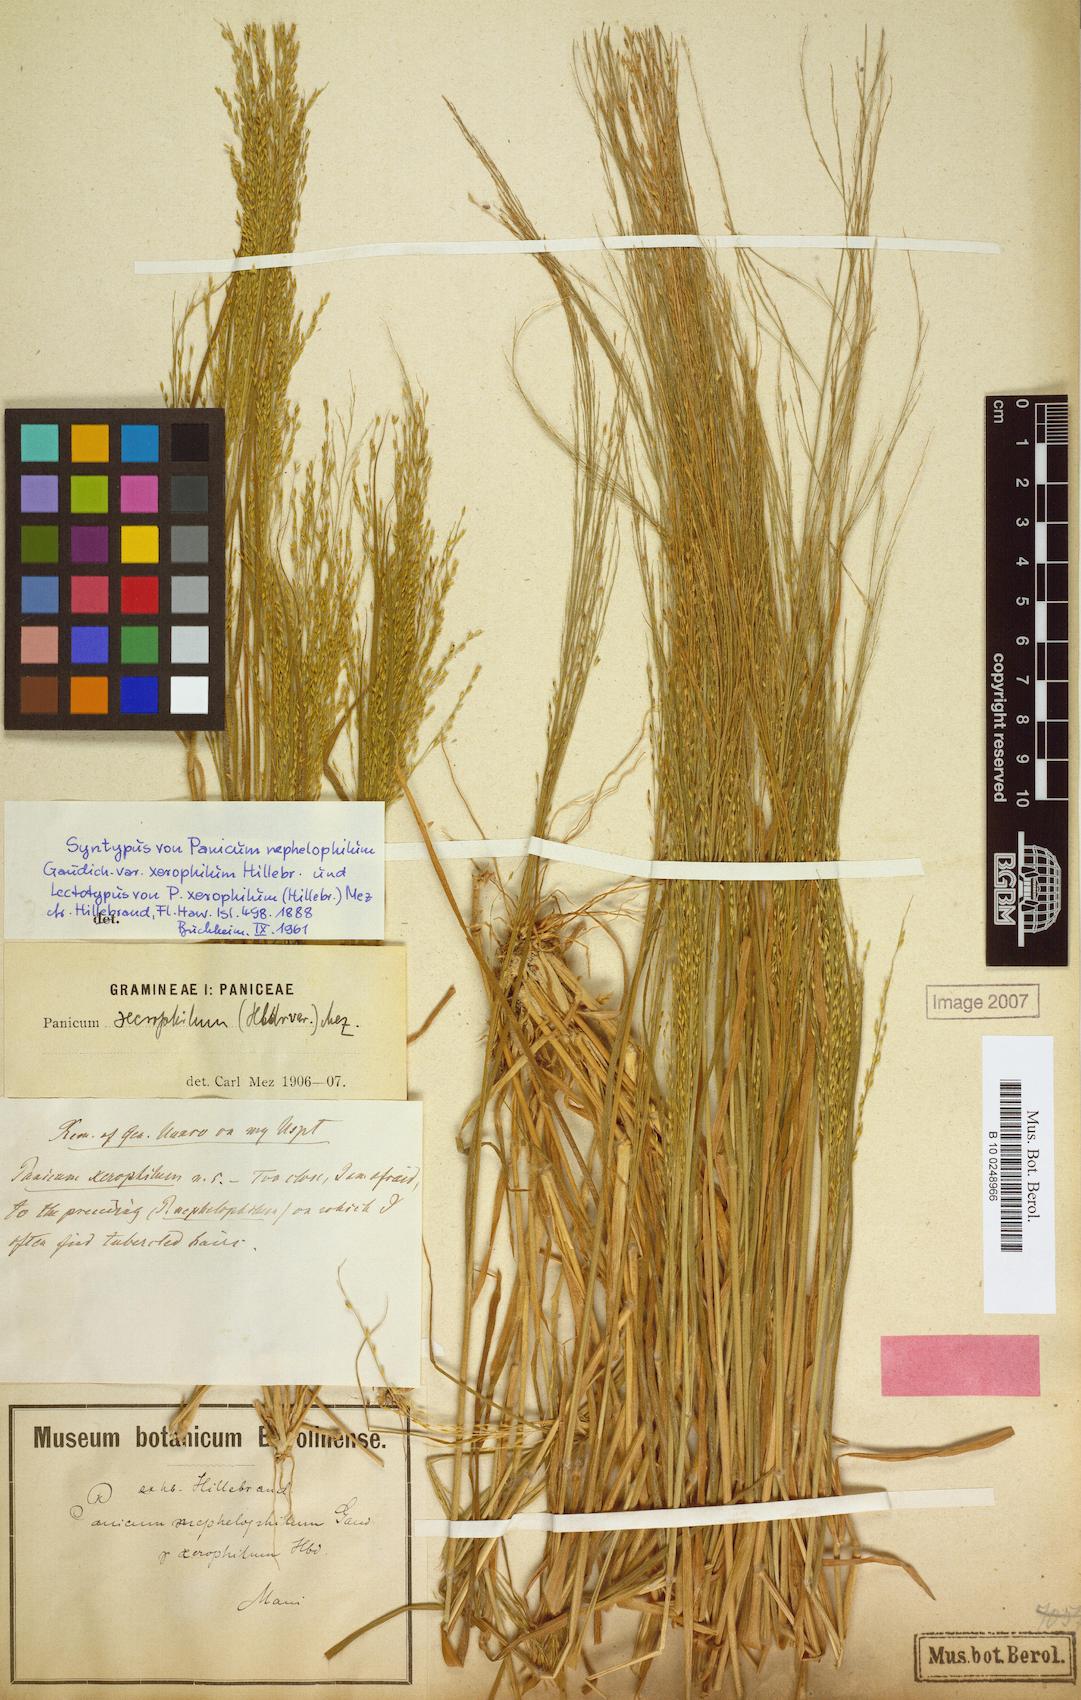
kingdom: Plantae
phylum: Tracheophyta
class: Liliopsida
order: Poales
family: Poaceae
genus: Panicum
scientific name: Panicum xerophilum
